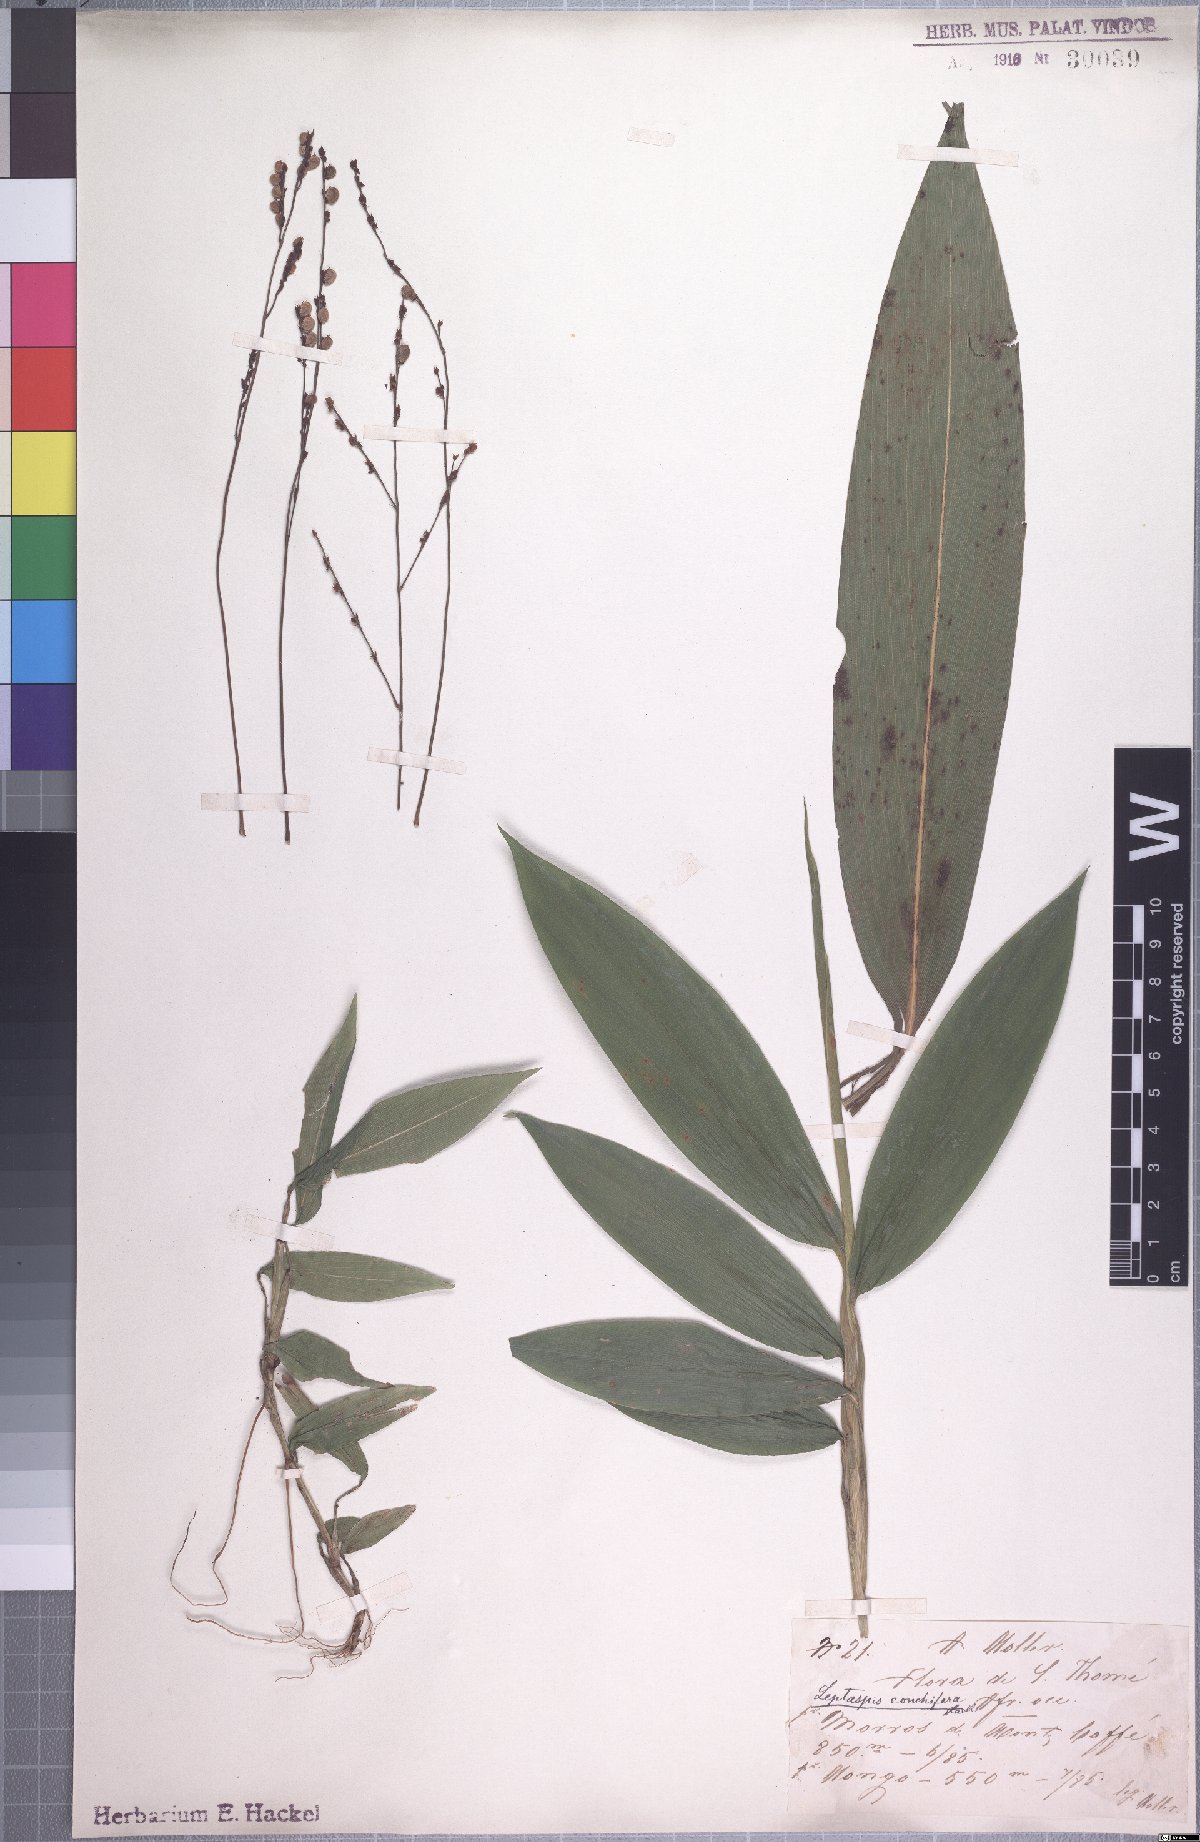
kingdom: Plantae
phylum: Tracheophyta
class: Liliopsida
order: Poales
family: Poaceae
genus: Leptaspis
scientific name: Leptaspis zeylanica
